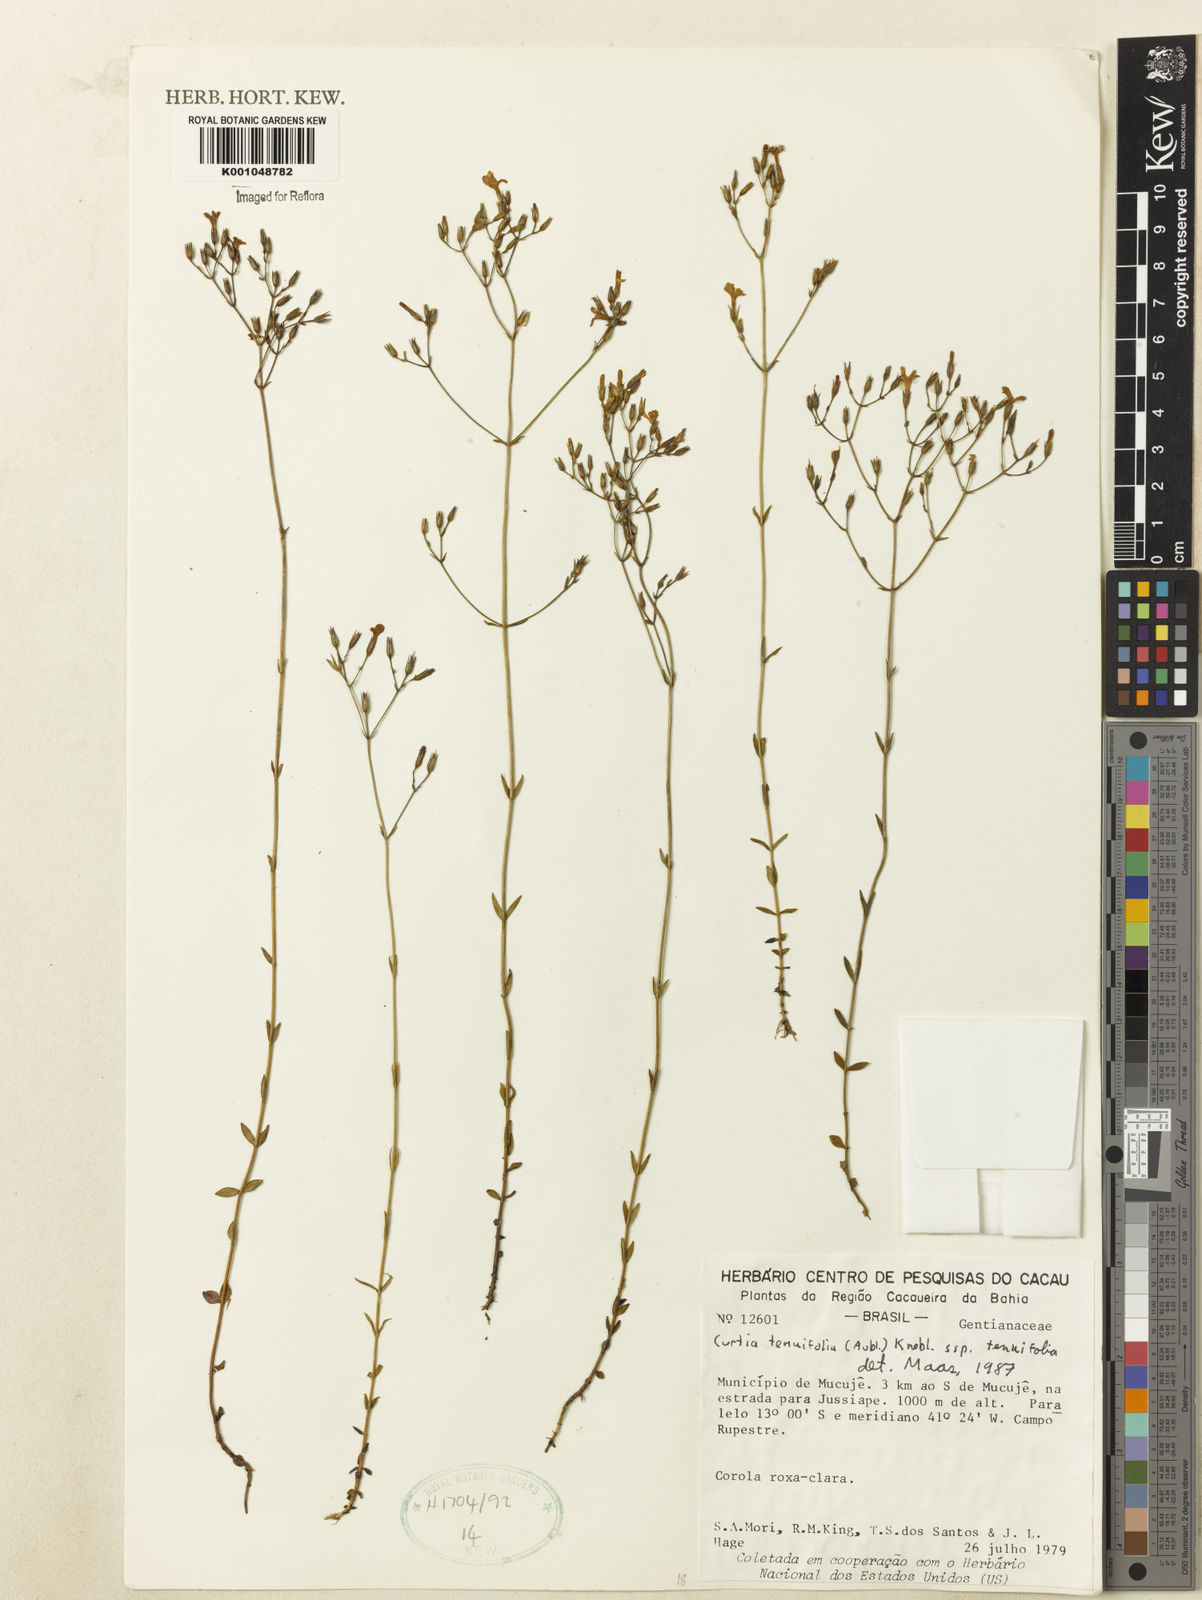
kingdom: Plantae
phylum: Tracheophyta
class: Magnoliopsida
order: Gentianales
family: Gentianaceae
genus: Curtia
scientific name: Curtia tenuifolia
